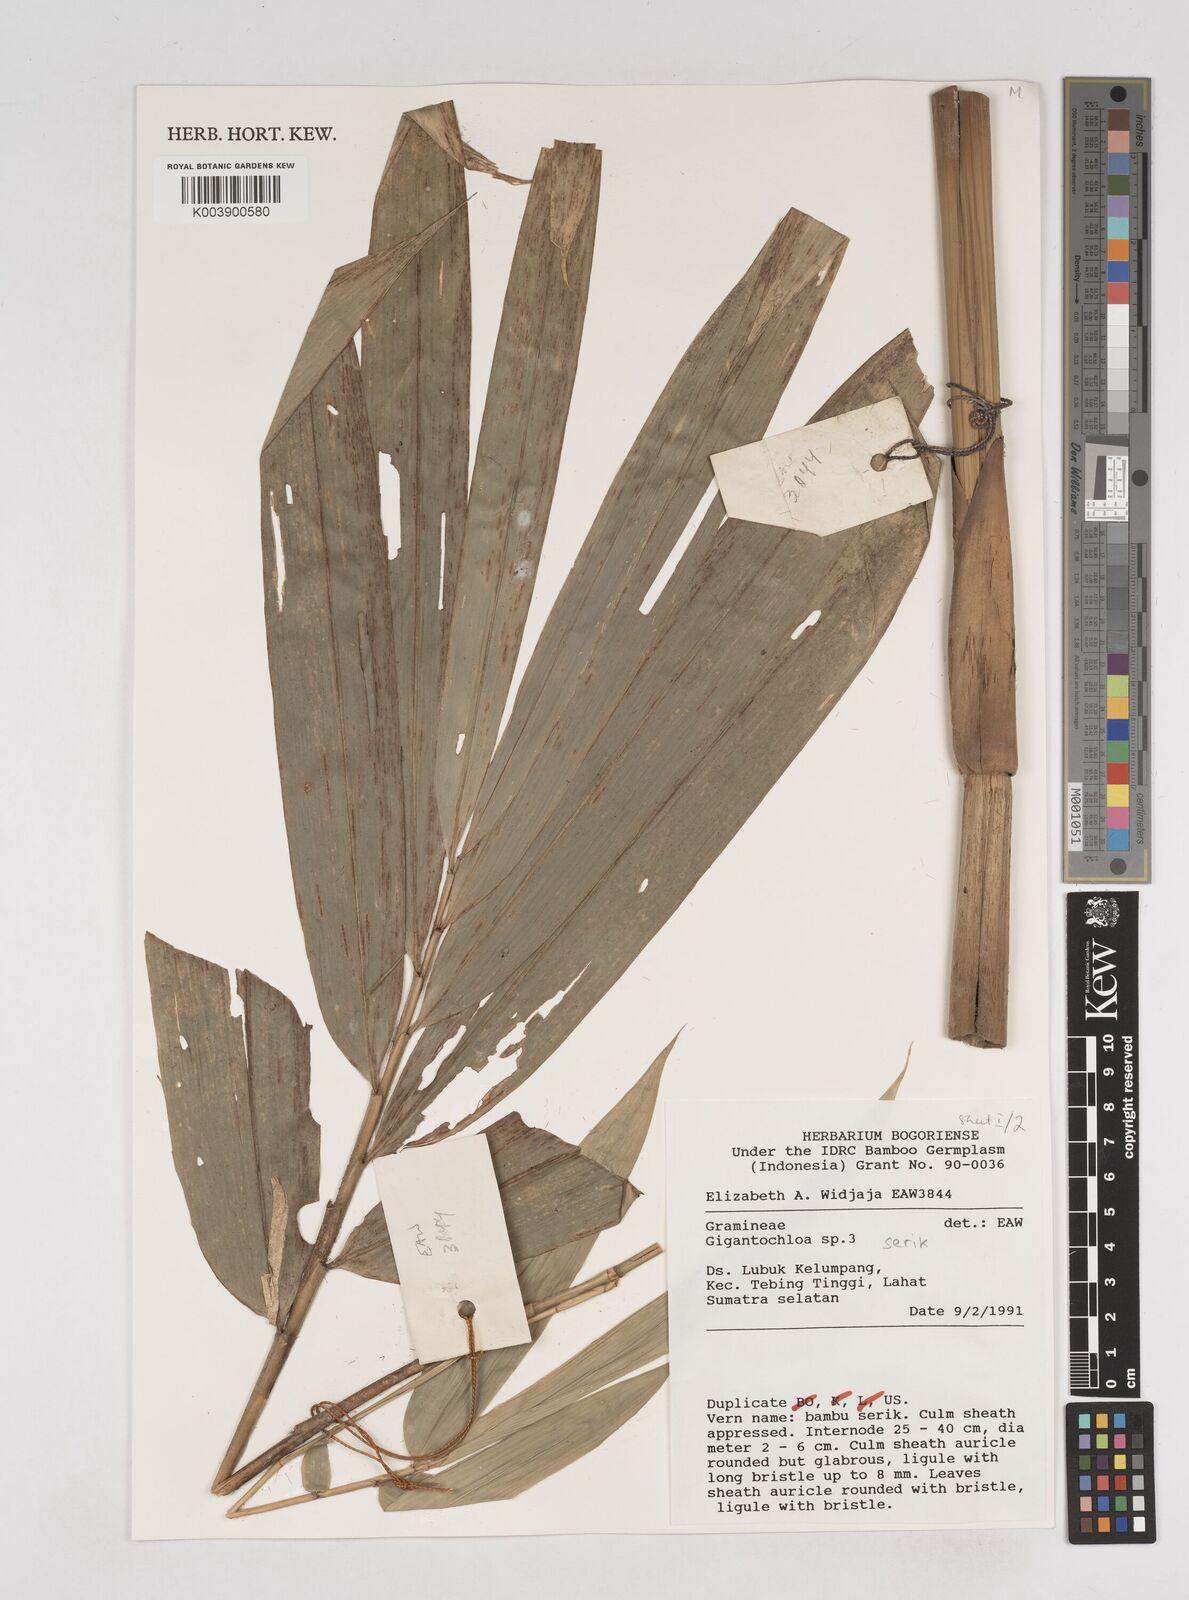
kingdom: Plantae
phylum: Tracheophyta
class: Liliopsida
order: Poales
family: Poaceae
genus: Gigantochloa
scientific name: Gigantochloa serik
